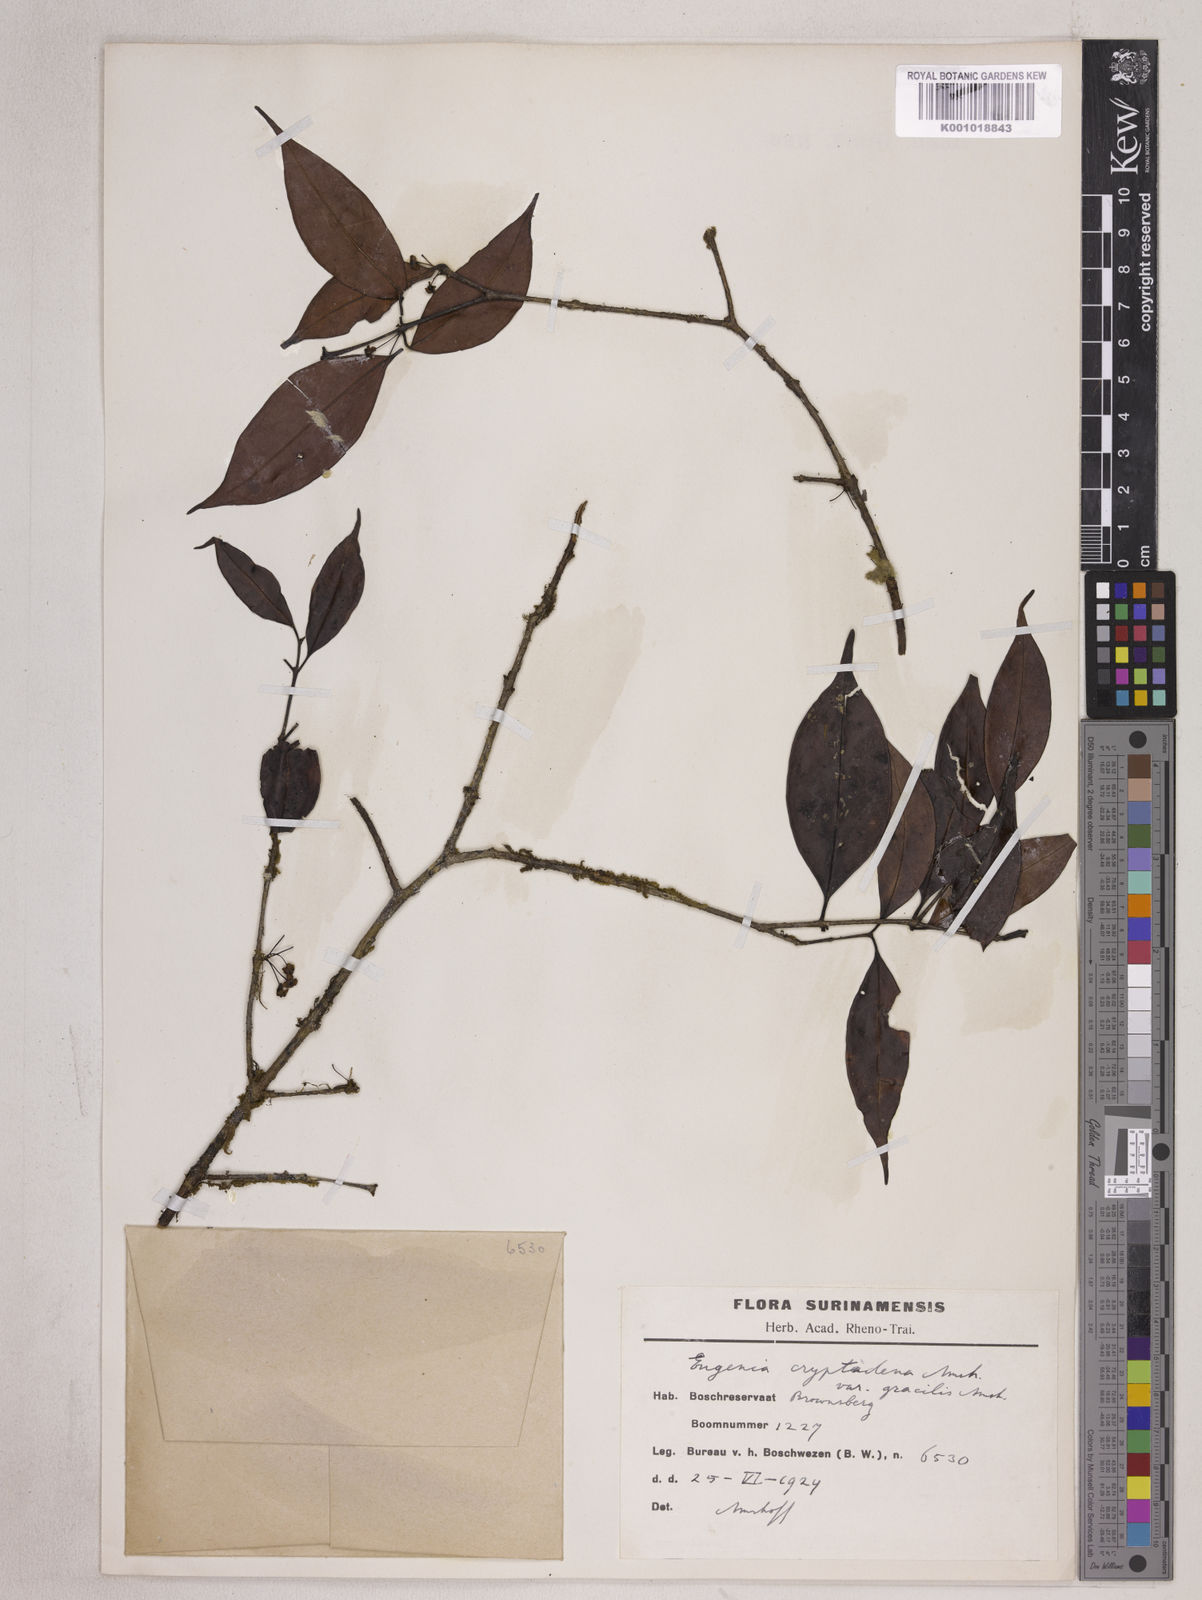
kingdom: Plantae
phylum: Tracheophyta
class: Magnoliopsida
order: Myrtales
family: Myrtaceae
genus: Eugenia
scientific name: Eugenia cowanii
